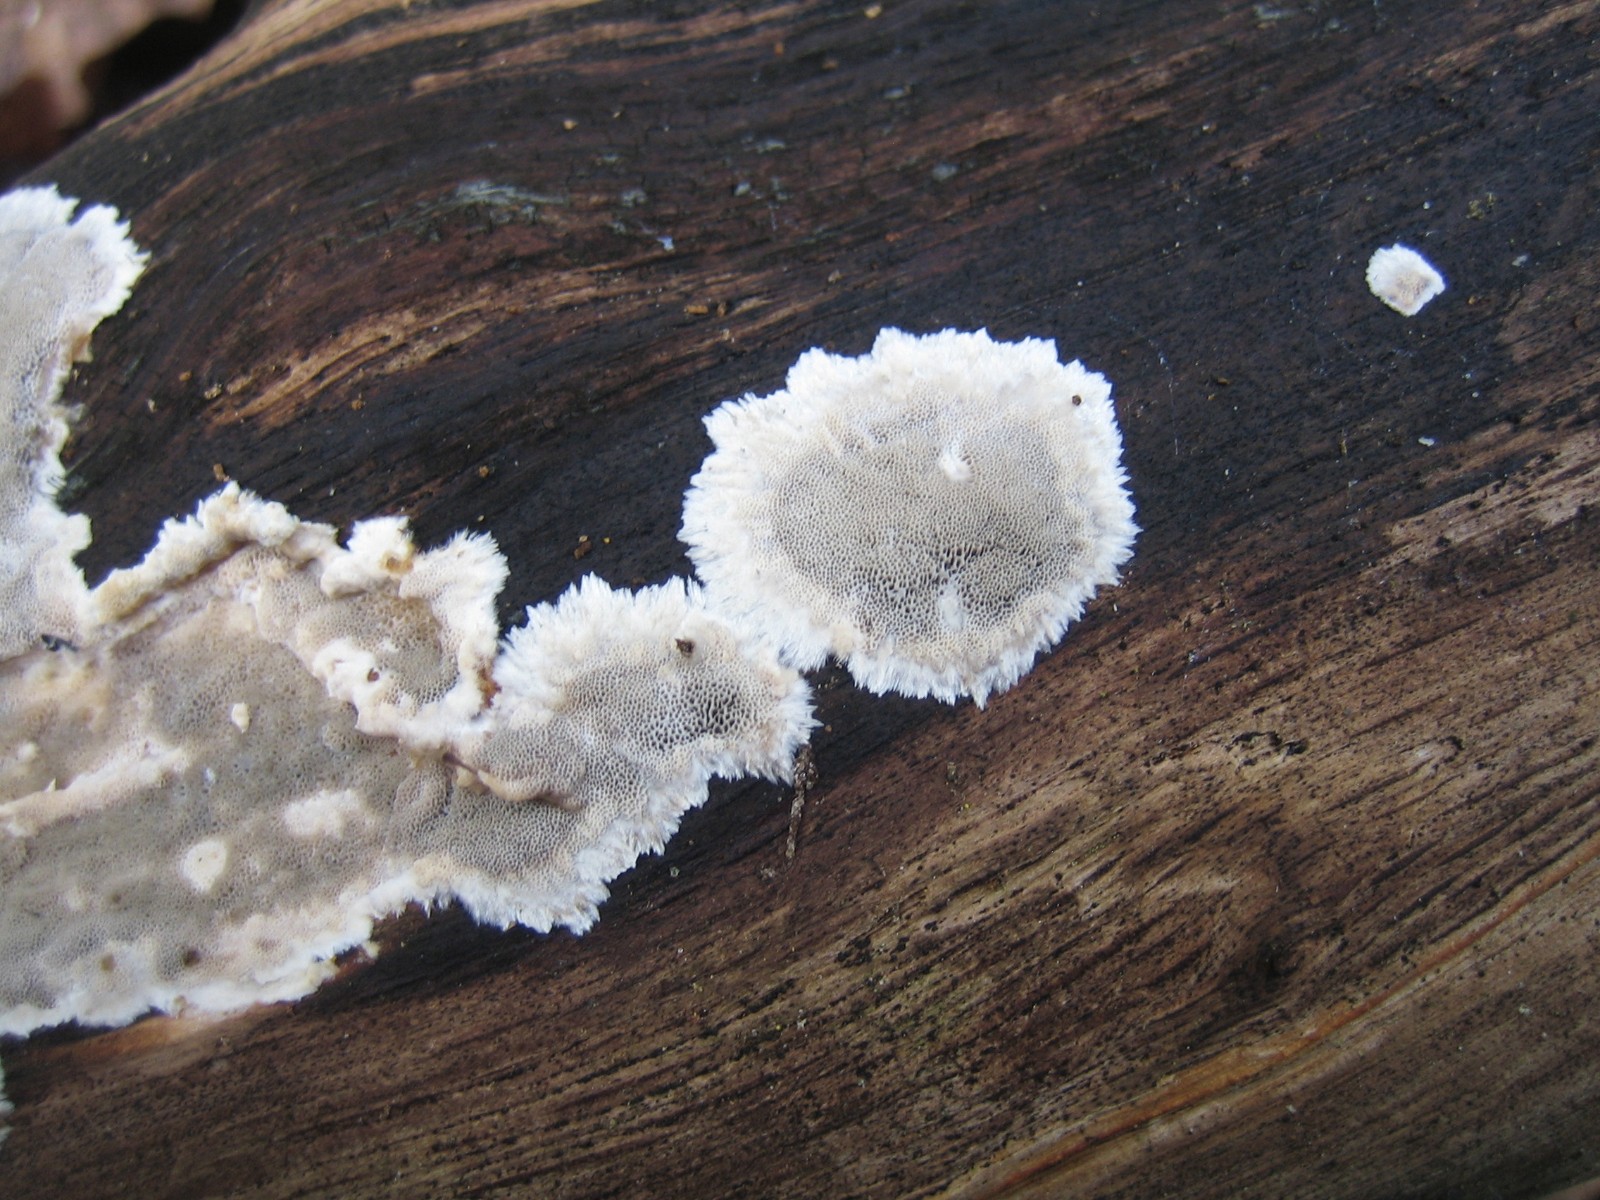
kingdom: Fungi
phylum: Basidiomycota
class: Agaricomycetes
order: Polyporales
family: Phanerochaetaceae
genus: Bjerkandera
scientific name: Bjerkandera adusta
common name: sveden sodporesvamp
